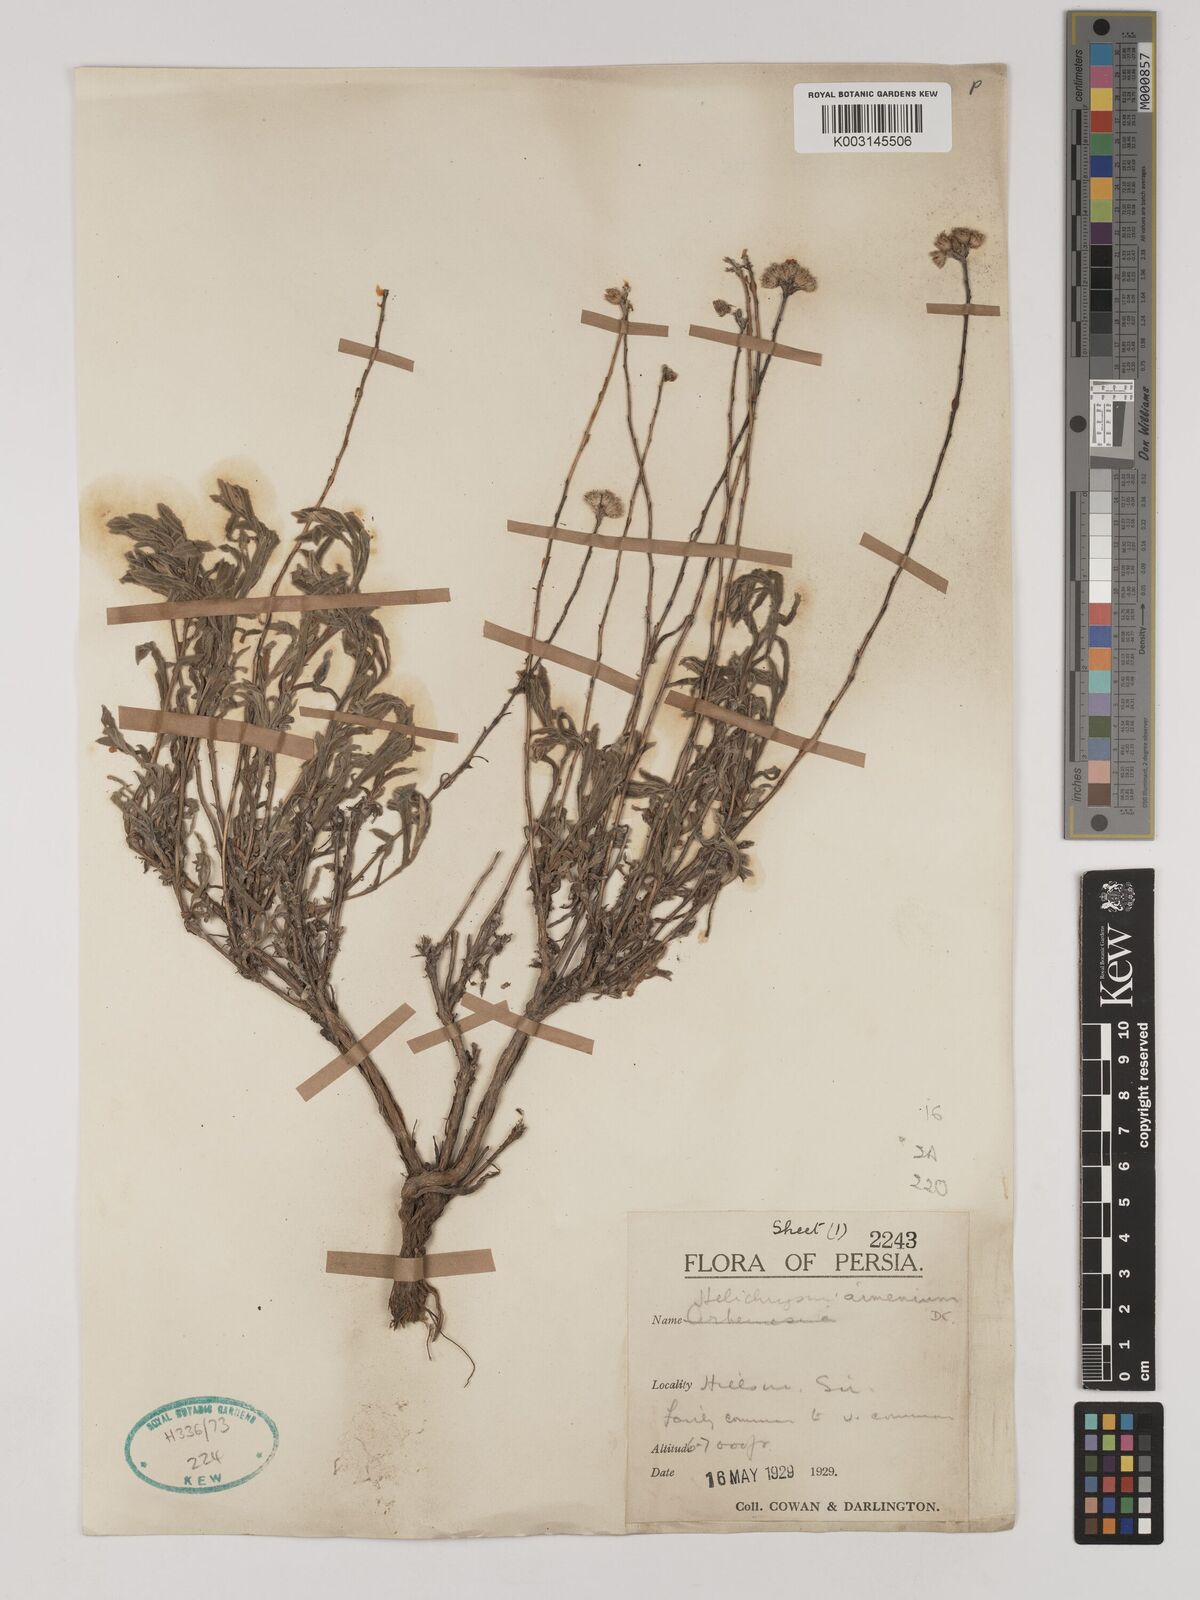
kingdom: Plantae
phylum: Tracheophyta
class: Magnoliopsida
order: Asterales
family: Asteraceae
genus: Helichrysum
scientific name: Helichrysum armenium
